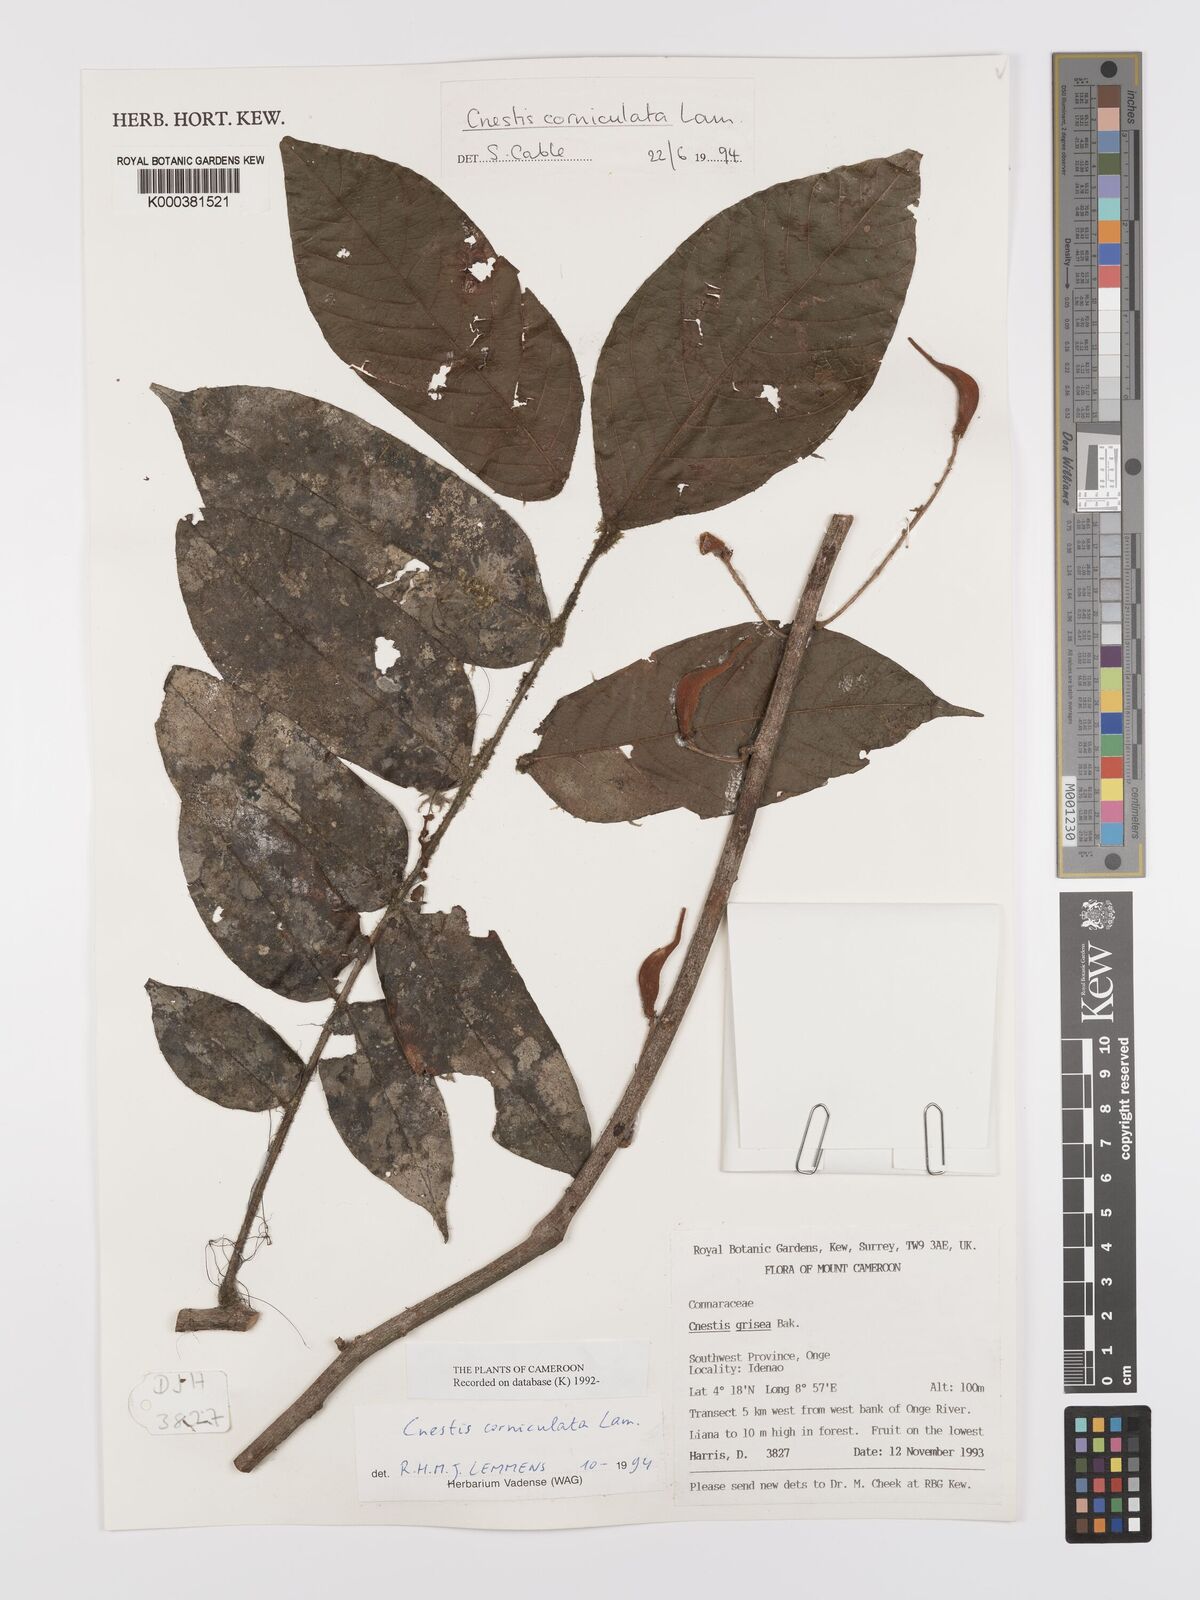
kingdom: Plantae
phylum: Tracheophyta
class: Magnoliopsida
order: Oxalidales
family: Connaraceae
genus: Cnestis
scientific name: Cnestis corniculata
